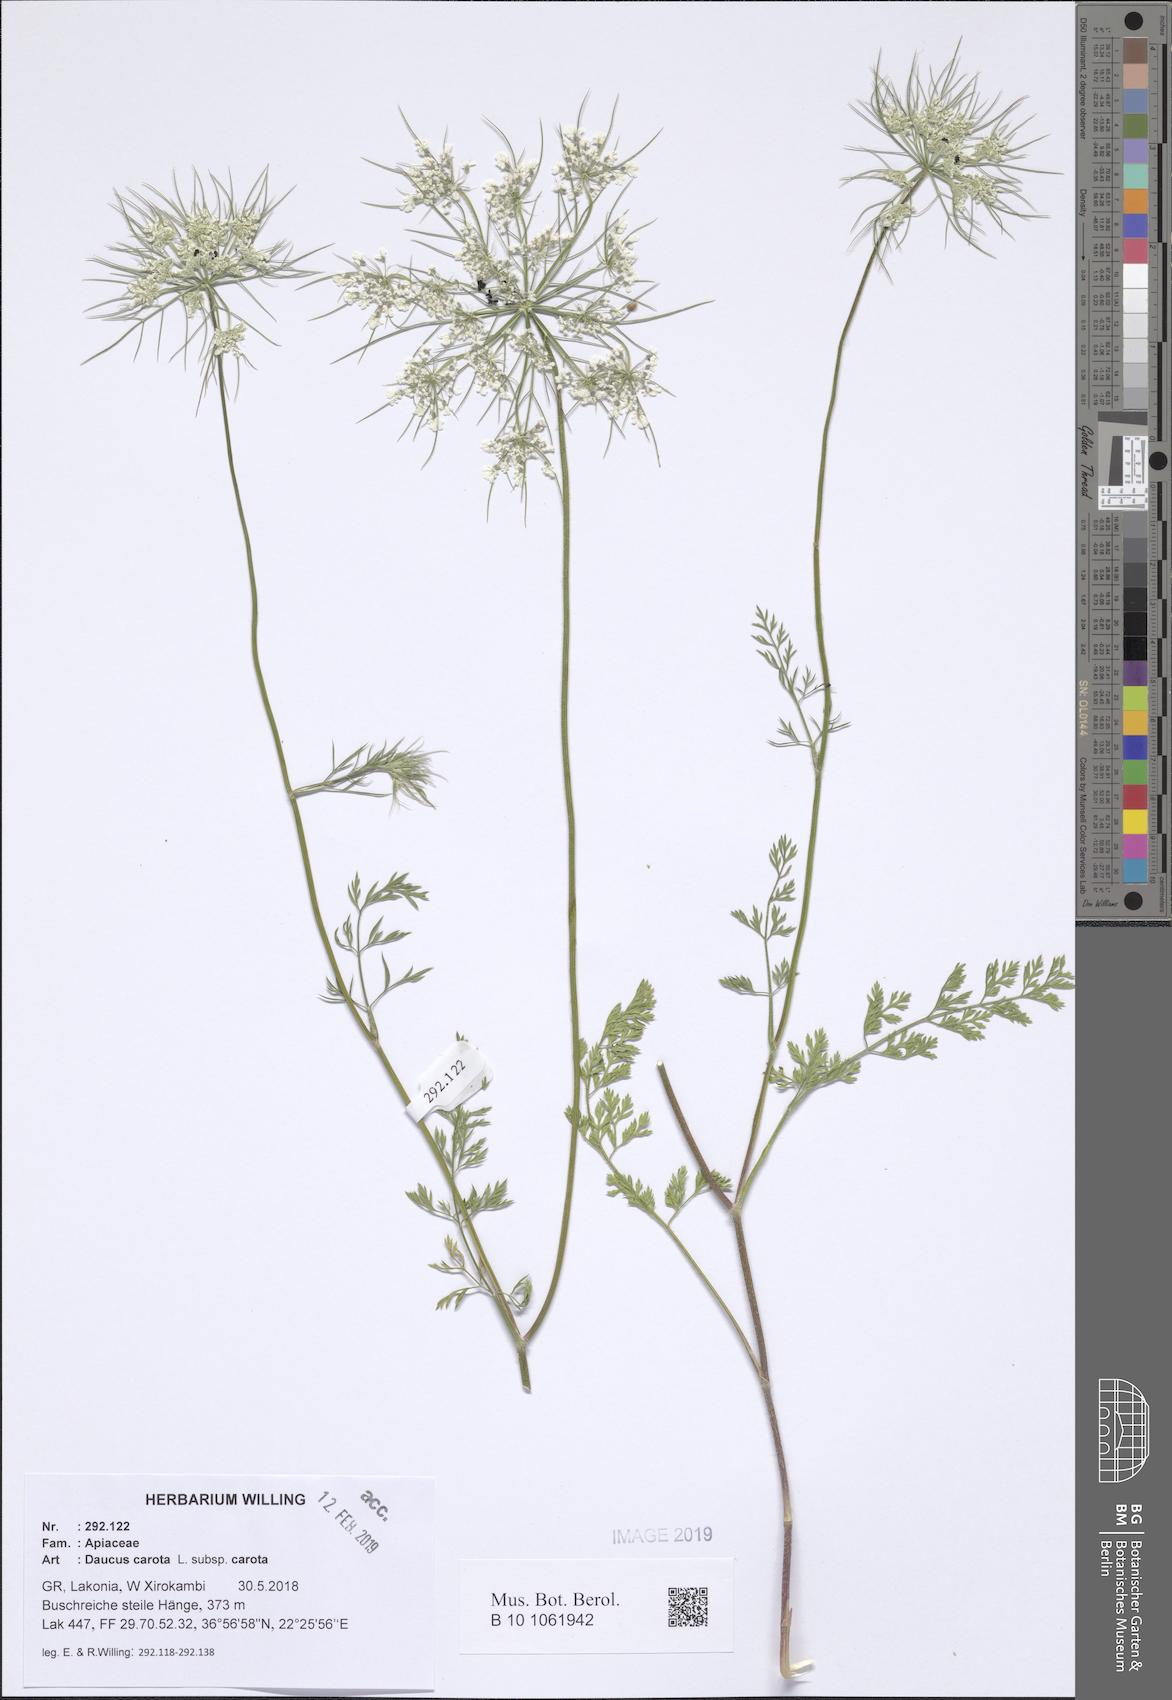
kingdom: Plantae
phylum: Tracheophyta
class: Magnoliopsida
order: Apiales
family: Apiaceae
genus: Daucus
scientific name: Daucus carota
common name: Wild carrot
